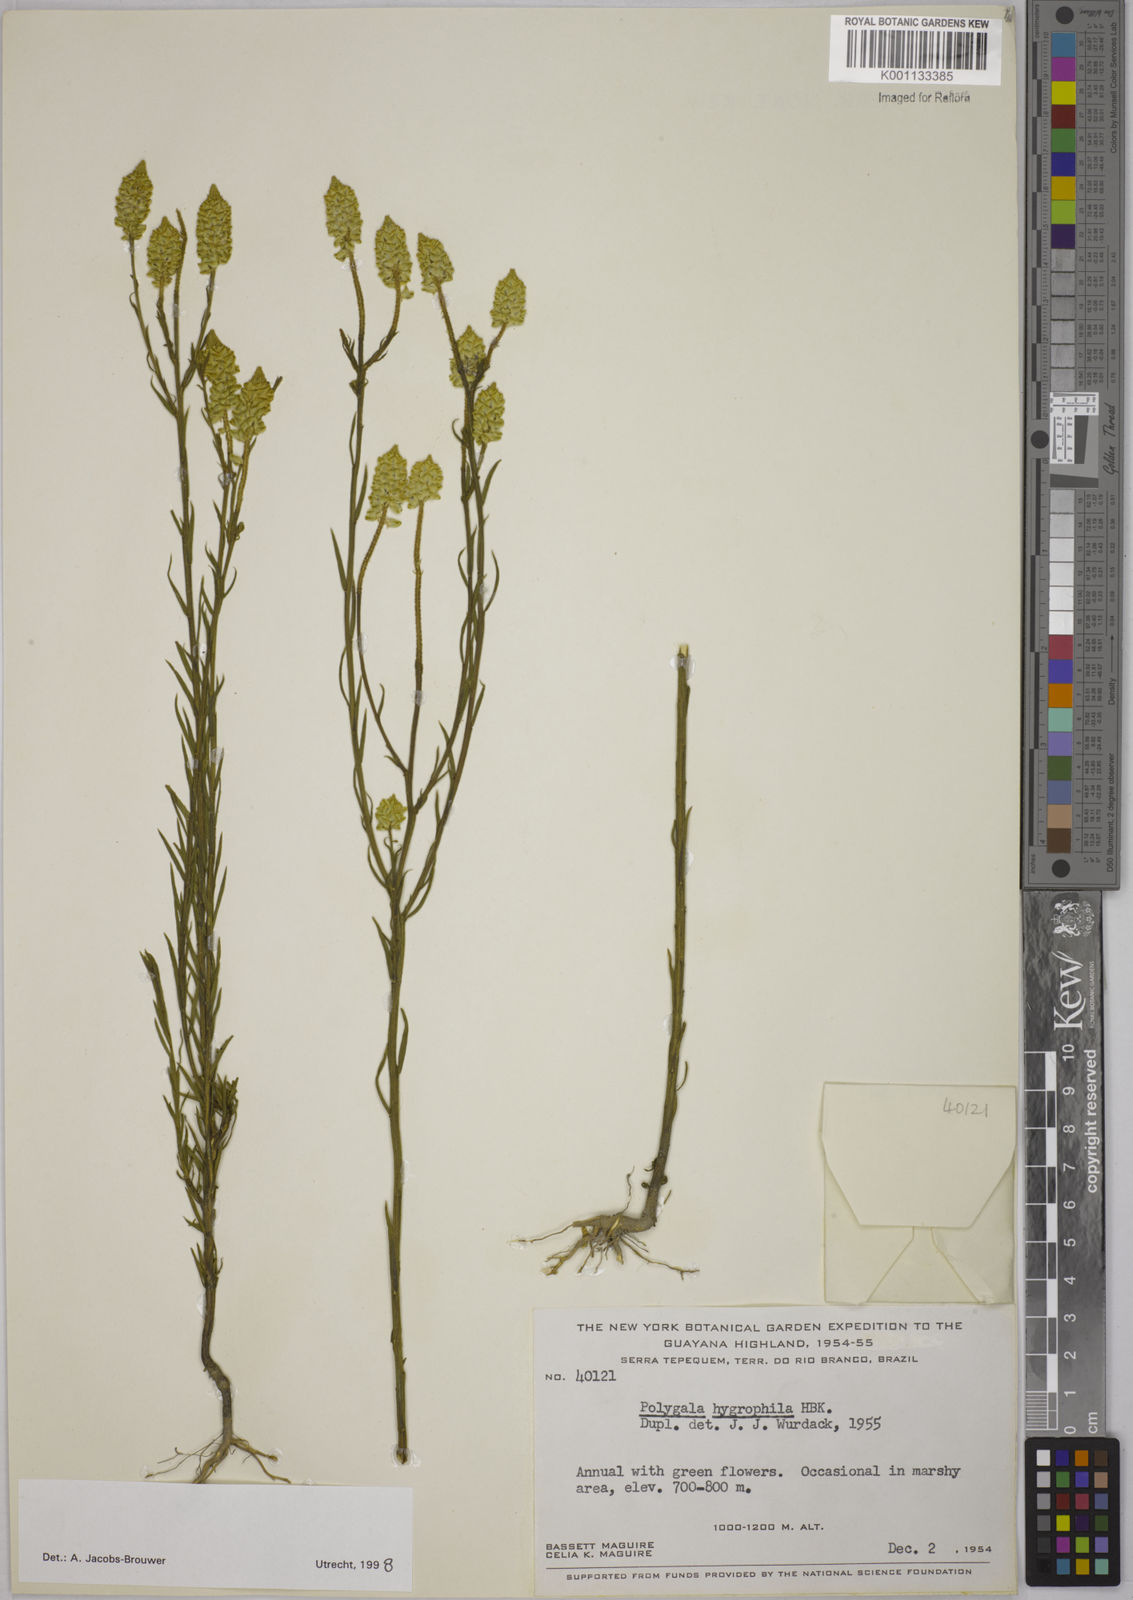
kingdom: Plantae
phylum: Tracheophyta
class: Magnoliopsida
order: Fabales
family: Polygalaceae
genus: Polygala
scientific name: Polygala hygrophila
